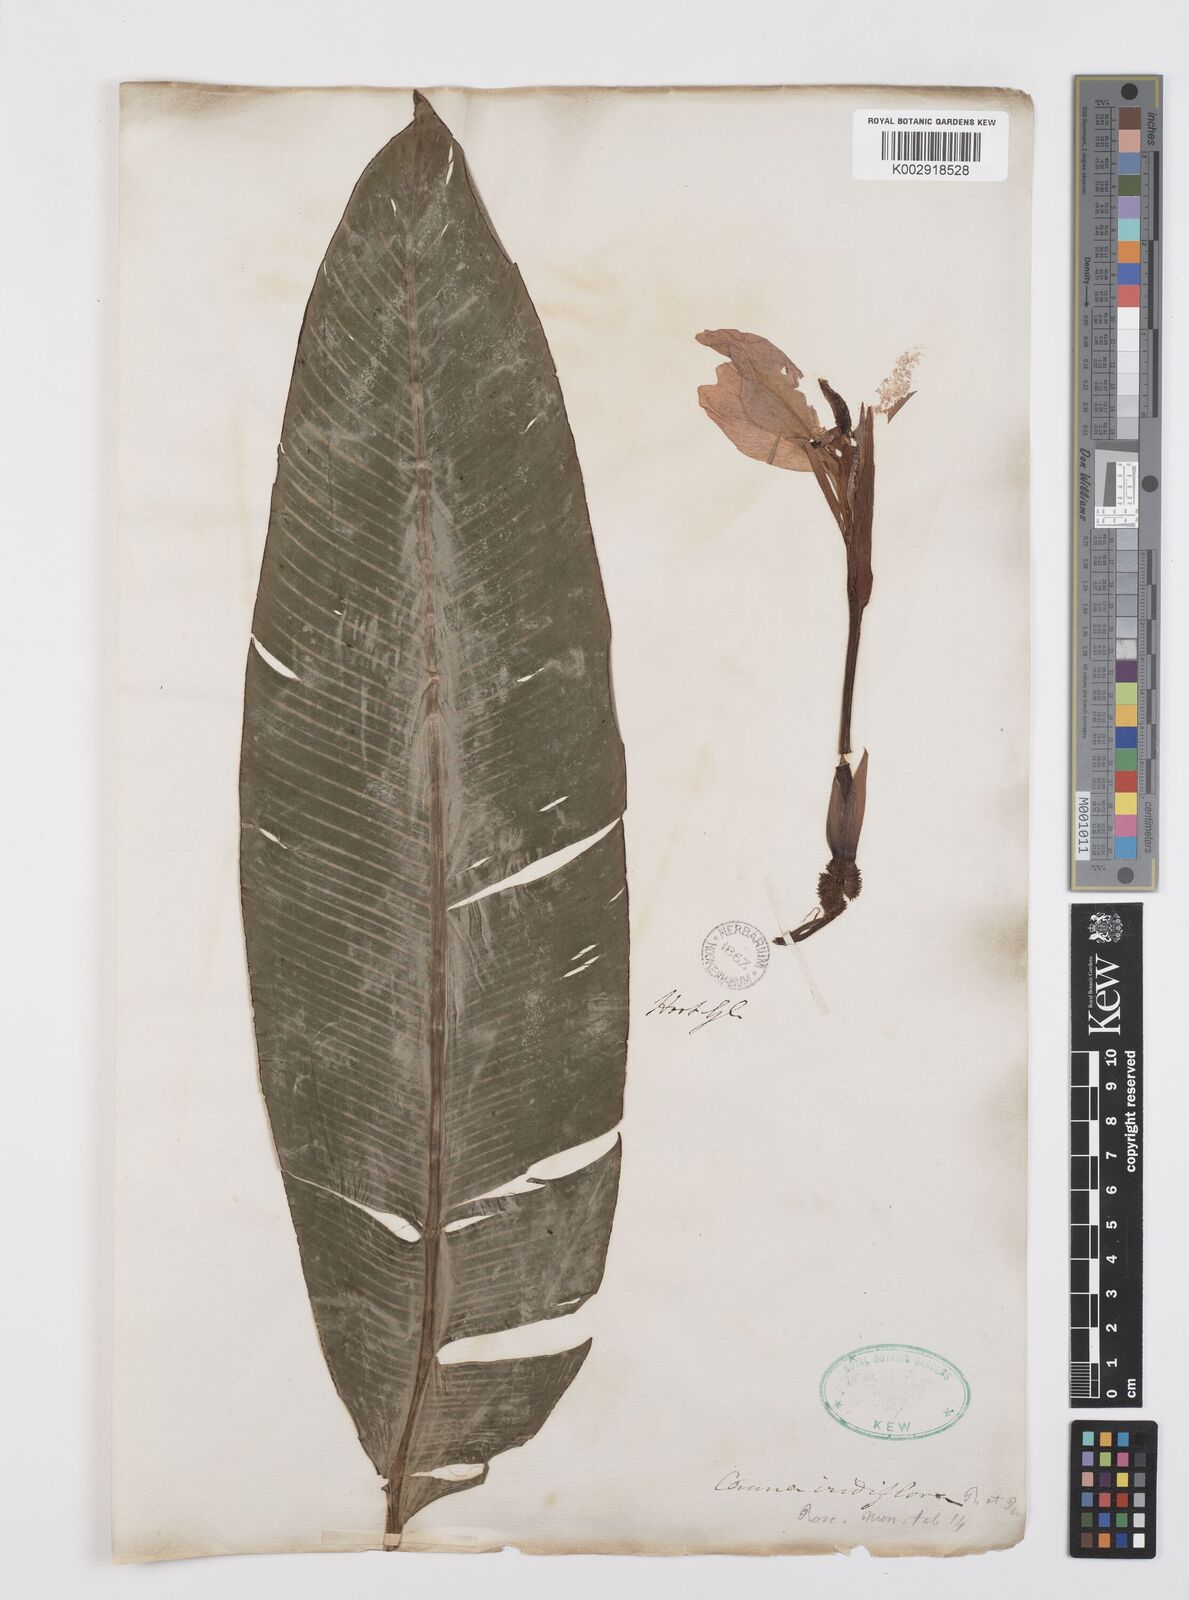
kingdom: Plantae
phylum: Tracheophyta
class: Liliopsida
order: Zingiberales
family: Cannaceae
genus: Canna
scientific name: Canna iridiflora
